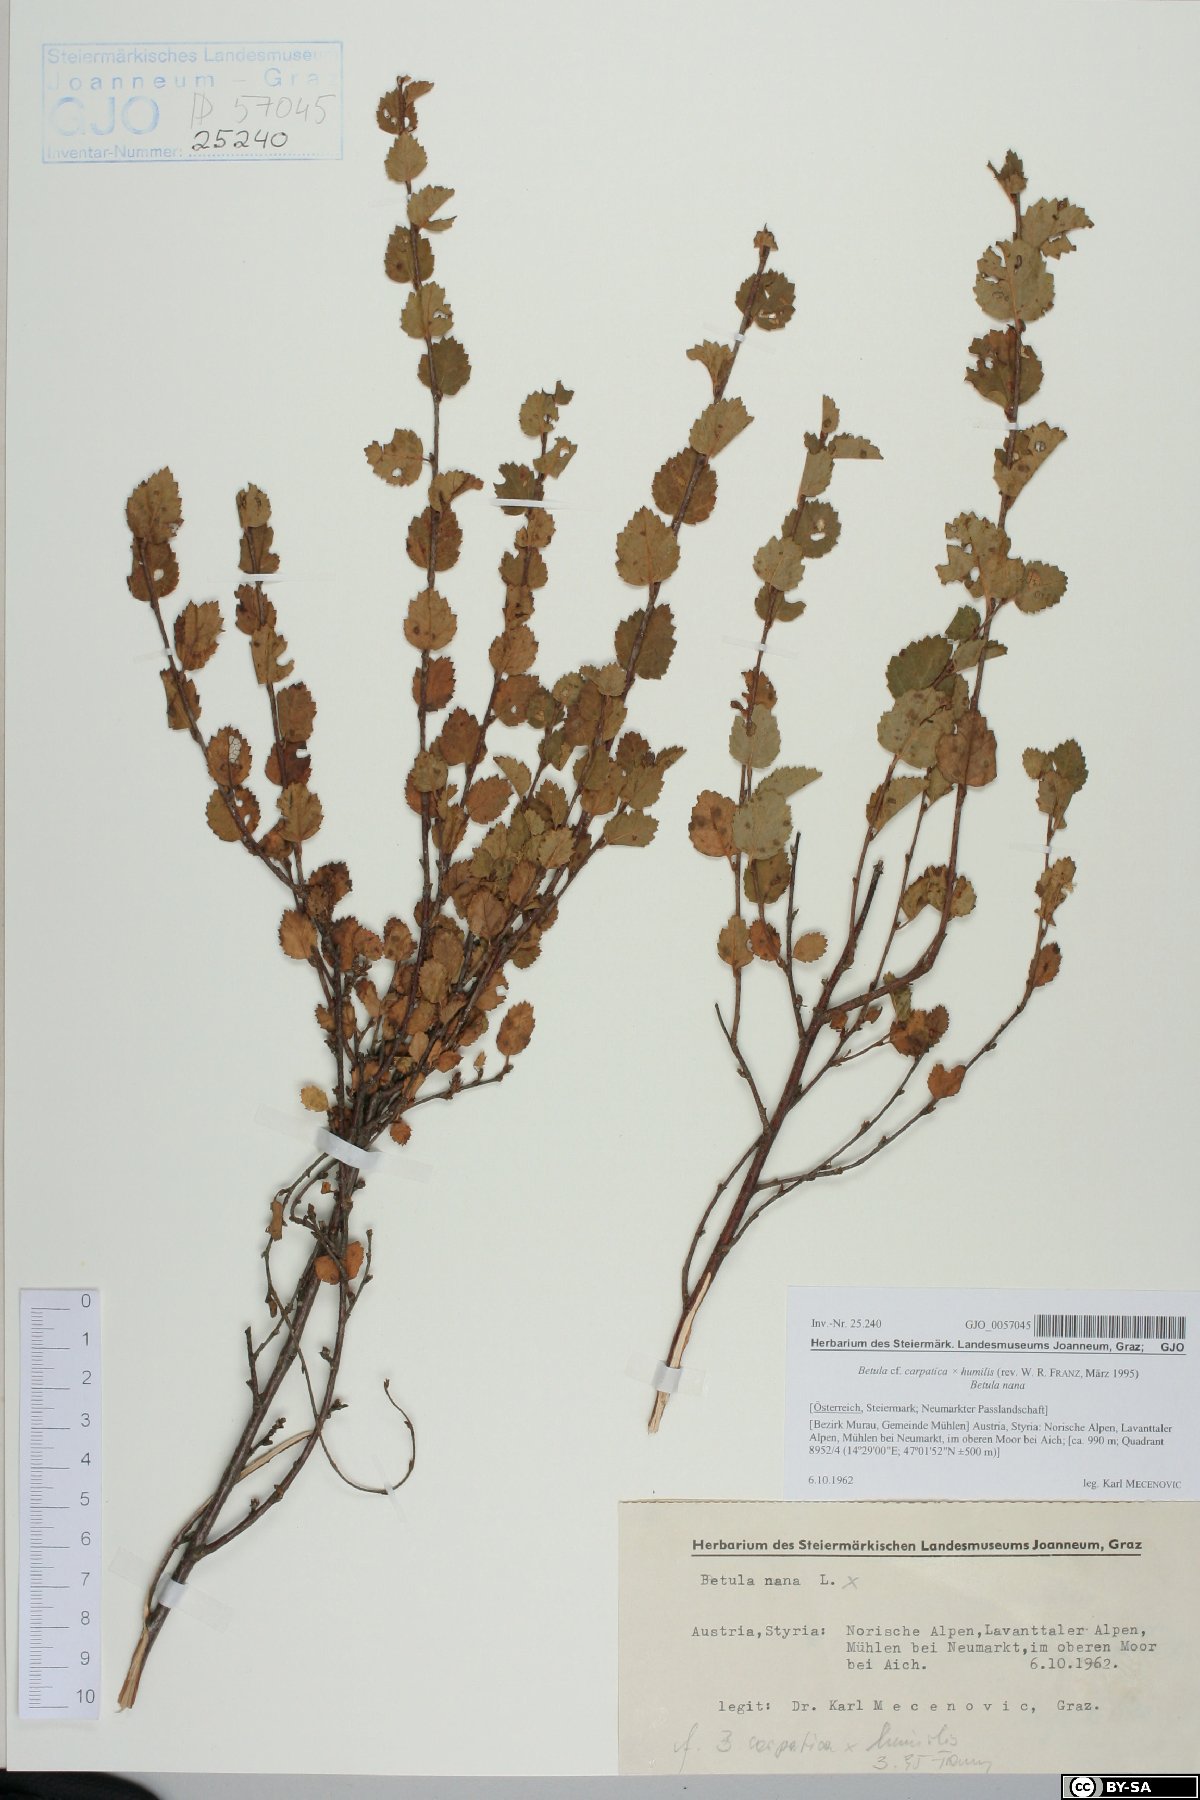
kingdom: Plantae
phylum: Tracheophyta
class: Magnoliopsida
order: Fagales
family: Betulaceae
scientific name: Betulaceae
